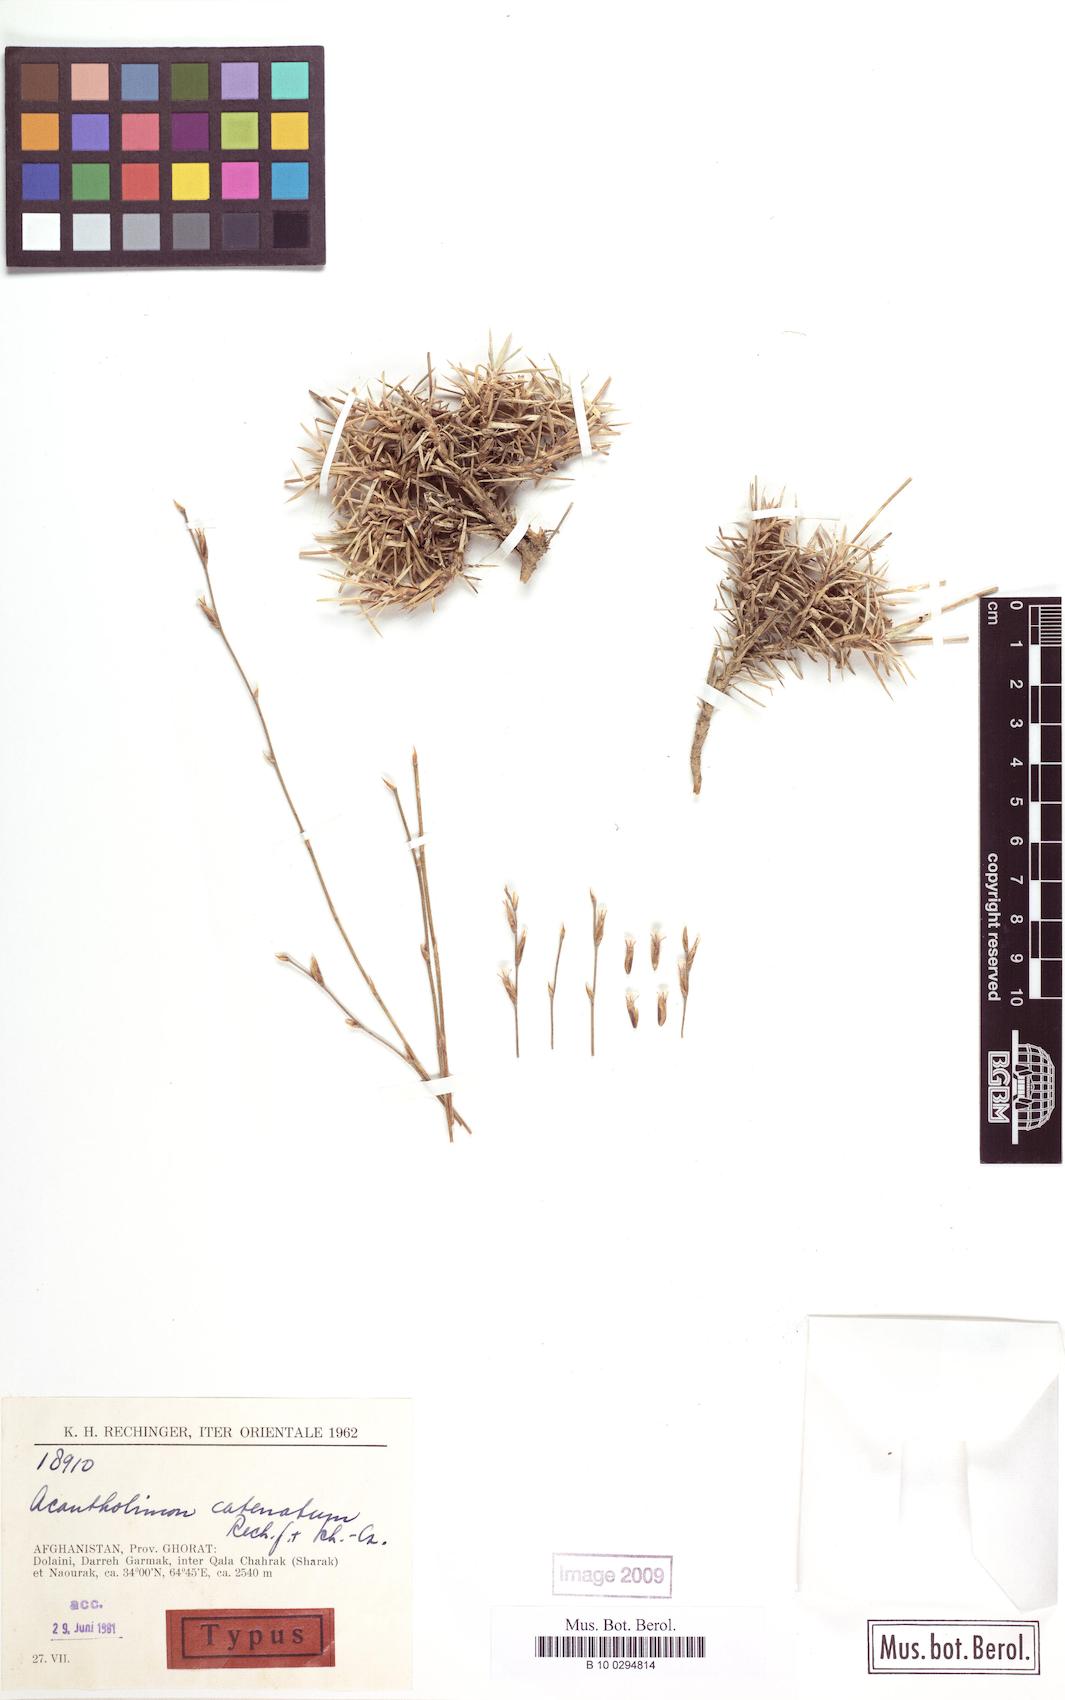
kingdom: Plantae
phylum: Tracheophyta
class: Magnoliopsida
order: Caryophyllales
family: Plumbaginaceae
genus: Acantholimon
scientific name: Acantholimon catenatum
